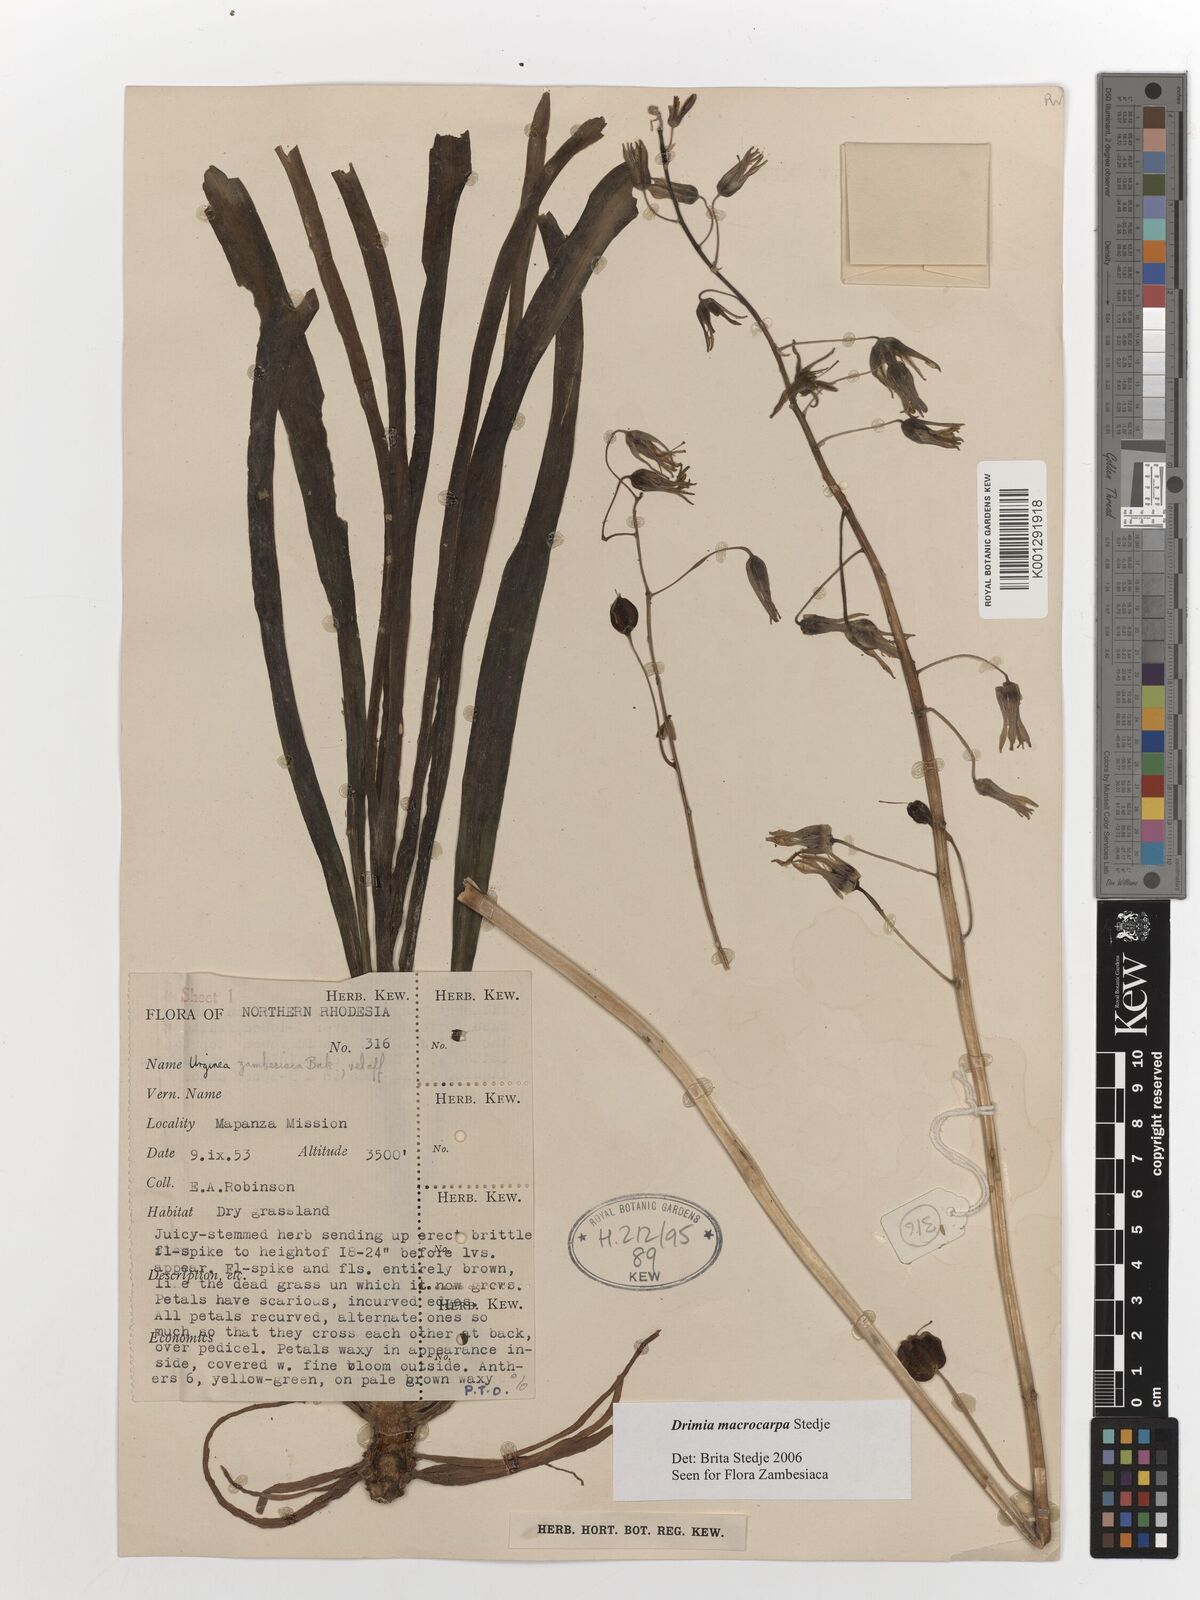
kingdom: Plantae
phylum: Tracheophyta
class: Liliopsida
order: Asparagales
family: Asparagaceae
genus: Drimia
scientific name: Drimia basutica
